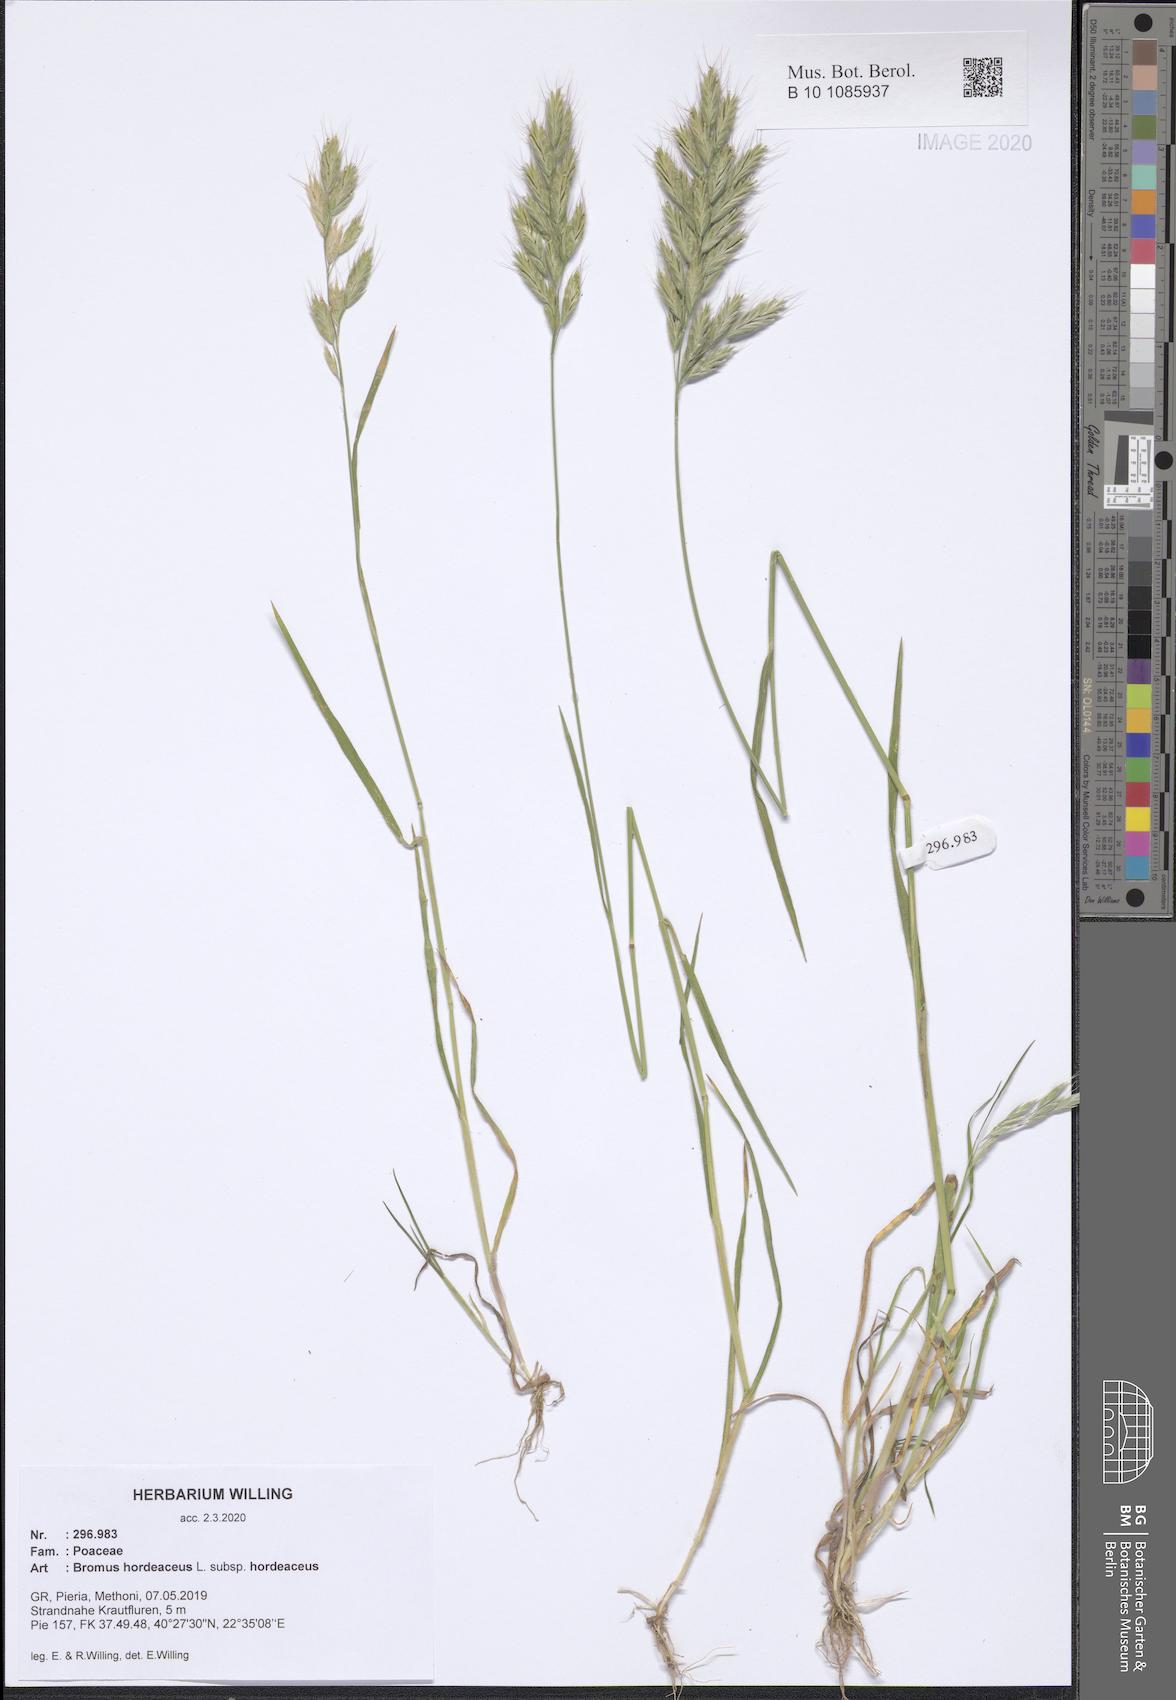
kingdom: Plantae
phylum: Tracheophyta
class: Liliopsida
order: Poales
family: Poaceae
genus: Bromus
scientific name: Bromus hordeaceus
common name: Soft brome
